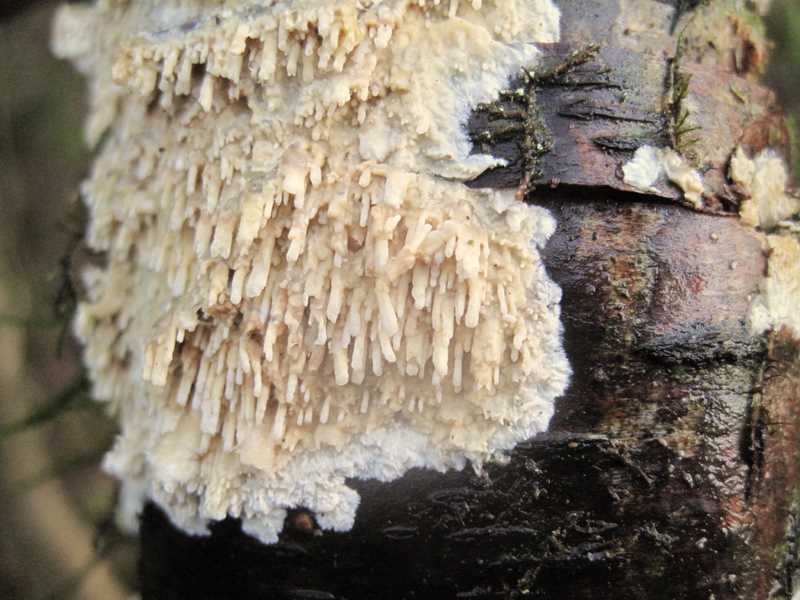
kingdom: Fungi
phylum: Basidiomycota
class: Agaricomycetes
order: Hymenochaetales
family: Schizoporaceae
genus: Xylodon
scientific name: Xylodon radula
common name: grovtandet kalkskind
